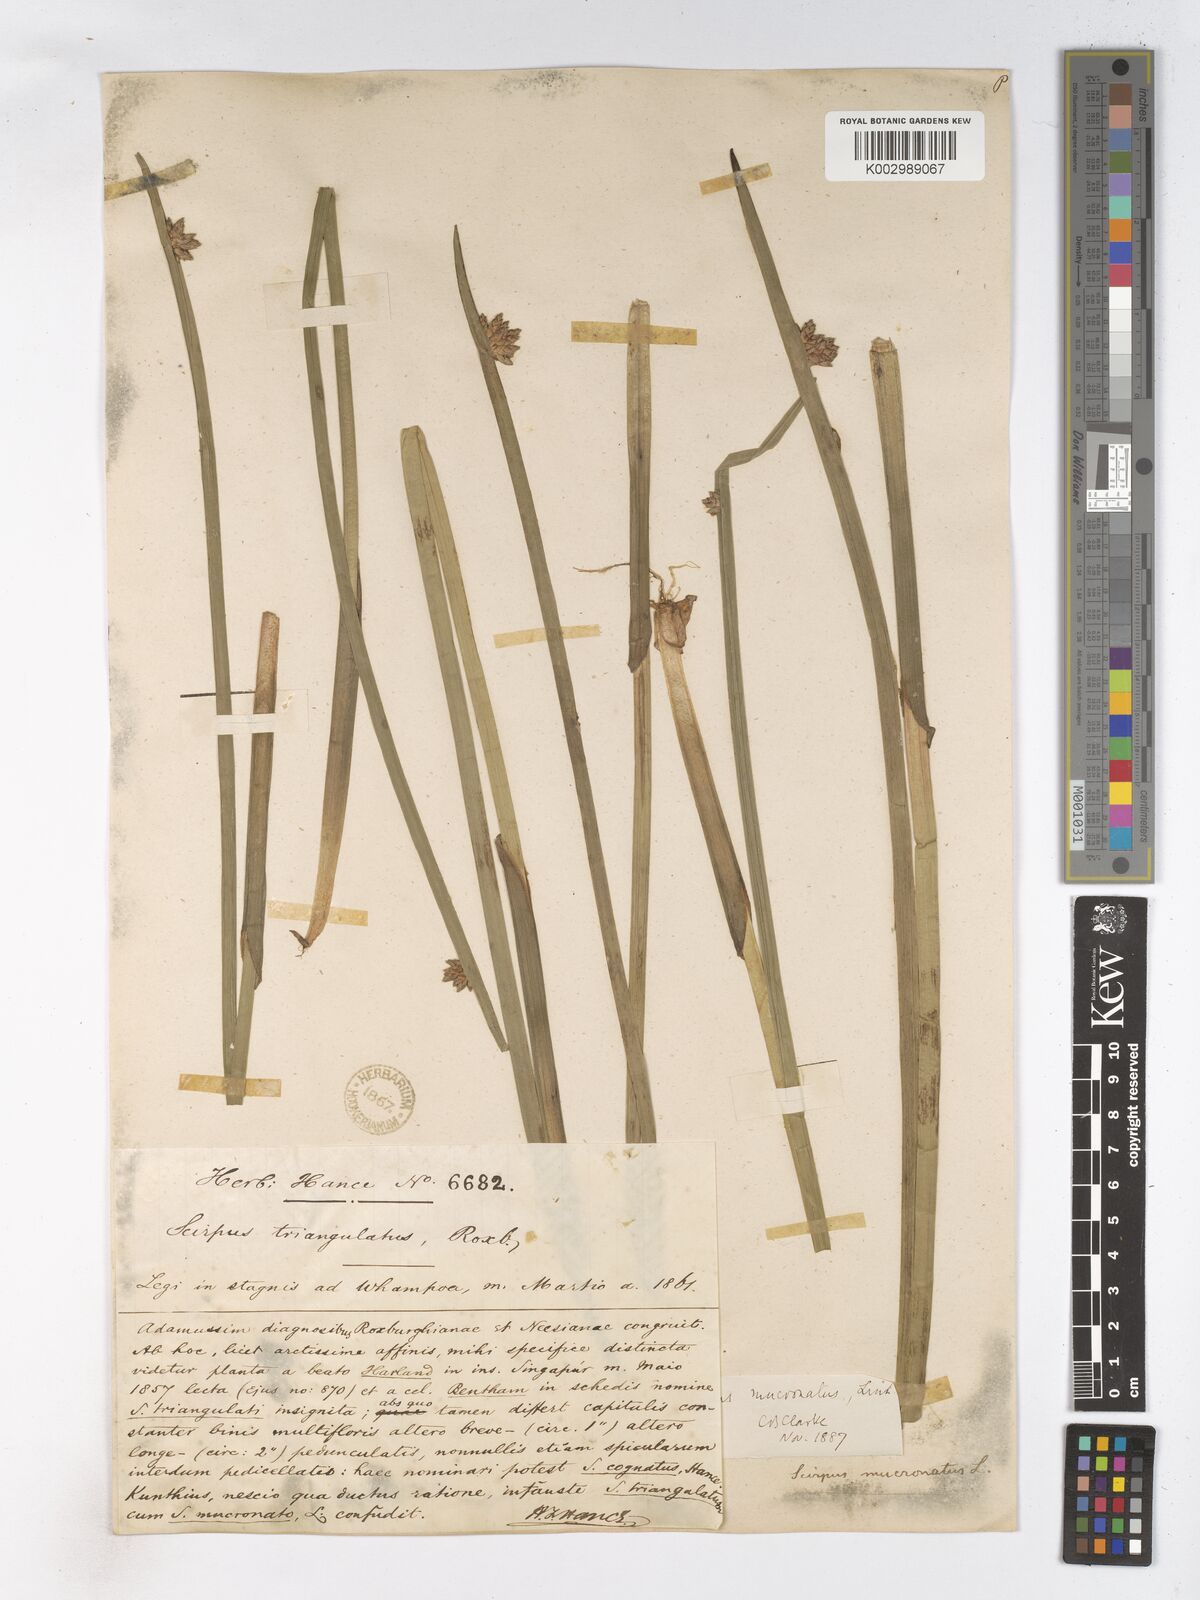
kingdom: Plantae
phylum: Tracheophyta
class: Liliopsida
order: Poales
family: Cyperaceae
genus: Schoenoplectiella
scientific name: Schoenoplectiella mucronata
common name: Bog bulrush
